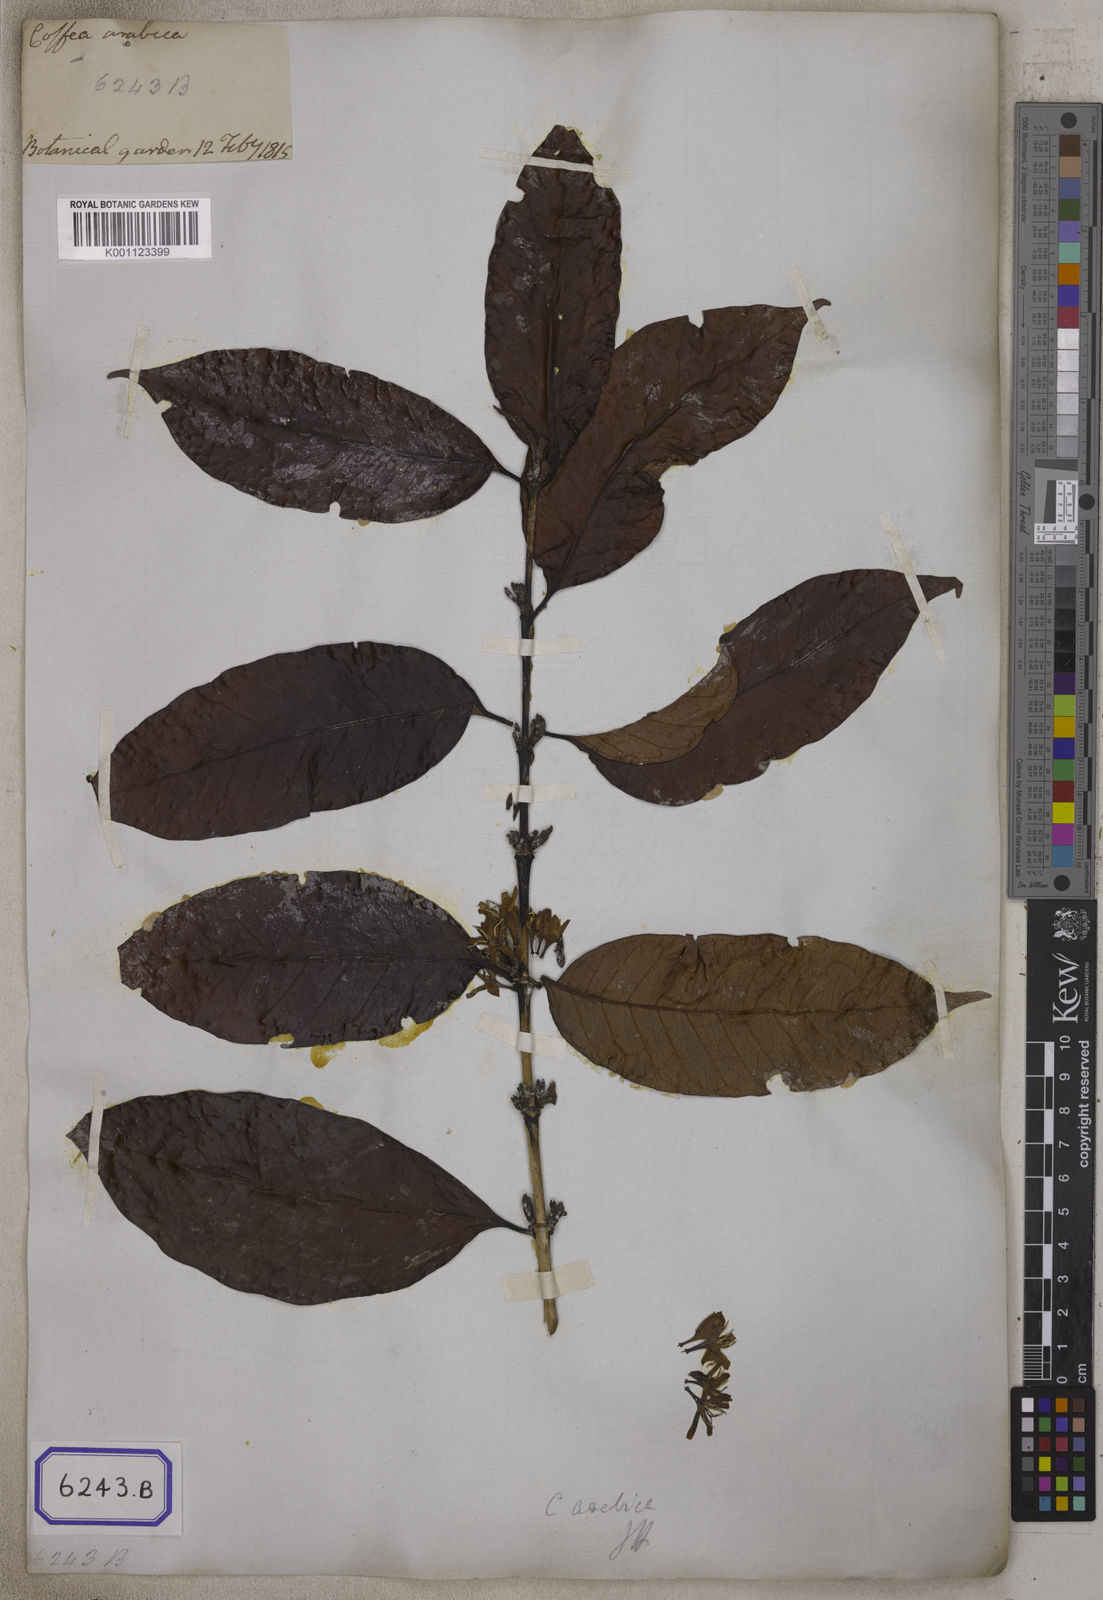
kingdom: Plantae
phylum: Tracheophyta
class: Magnoliopsida
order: Gentianales
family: Rubiaceae
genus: Coffea
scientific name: Coffea arabica
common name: Coffee
